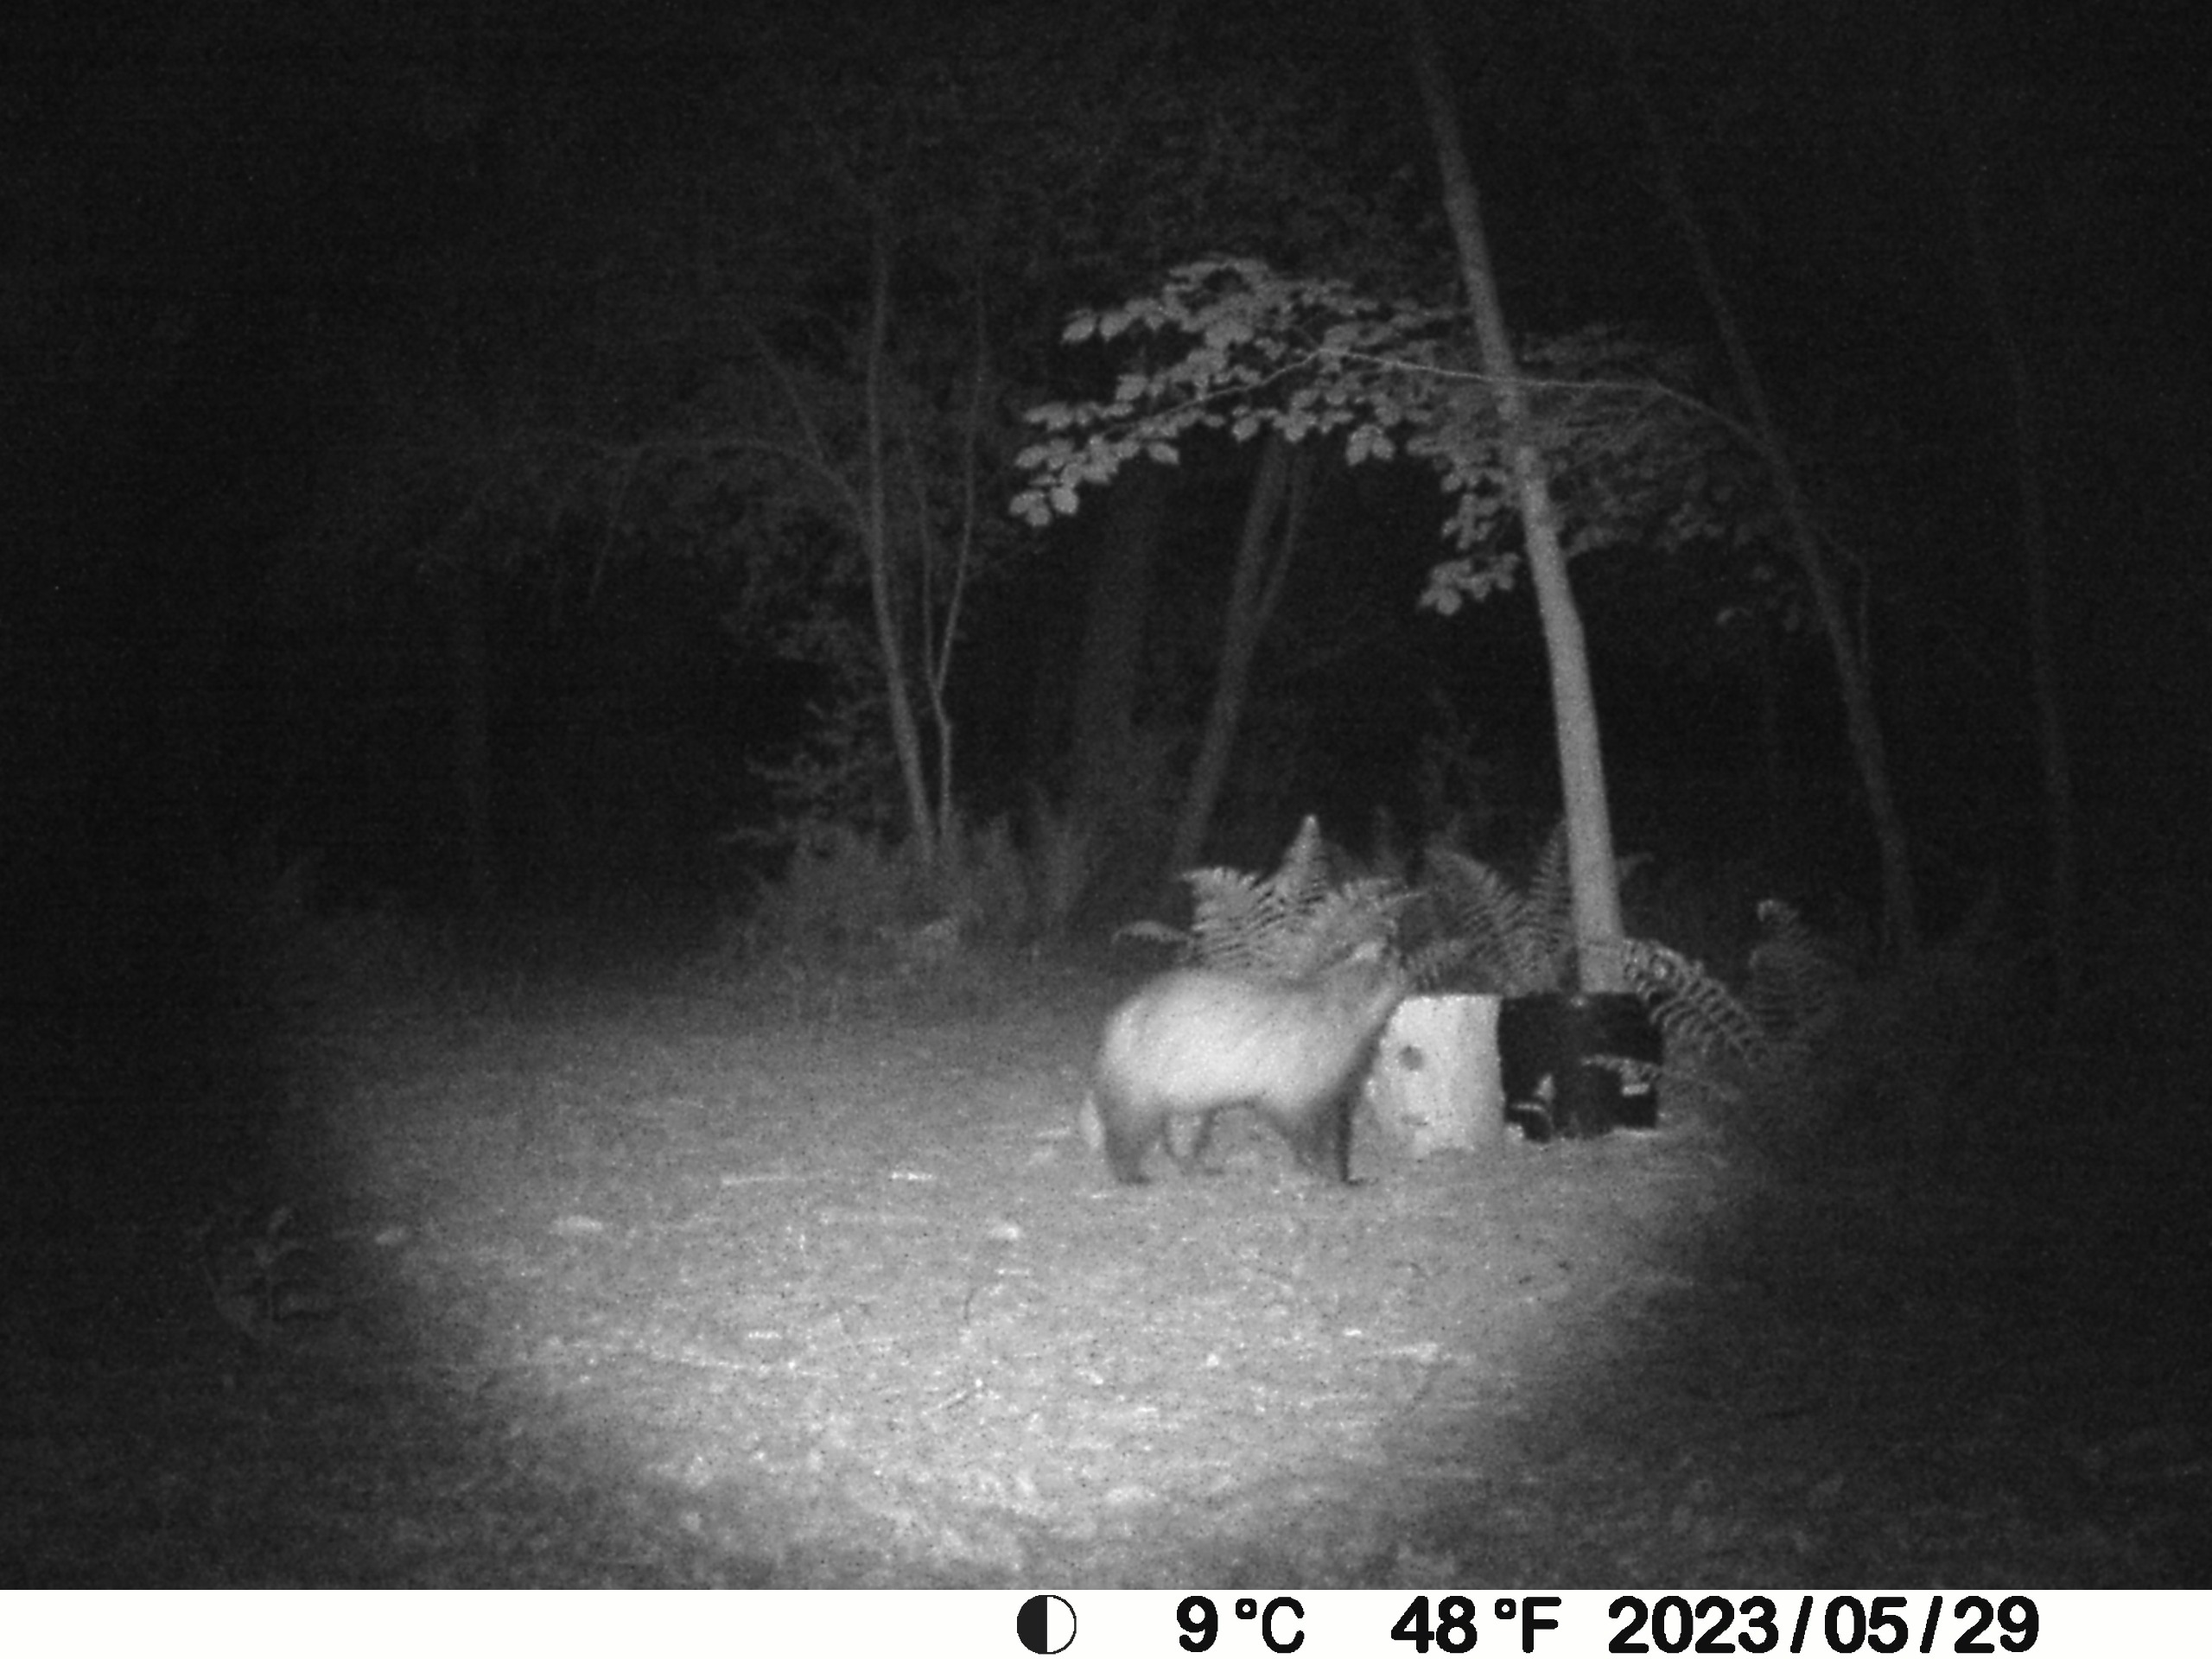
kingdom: Animalia
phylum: Chordata
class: Mammalia
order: Carnivora
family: Mustelidae
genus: Meles
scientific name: Meles meles
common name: Grævling
